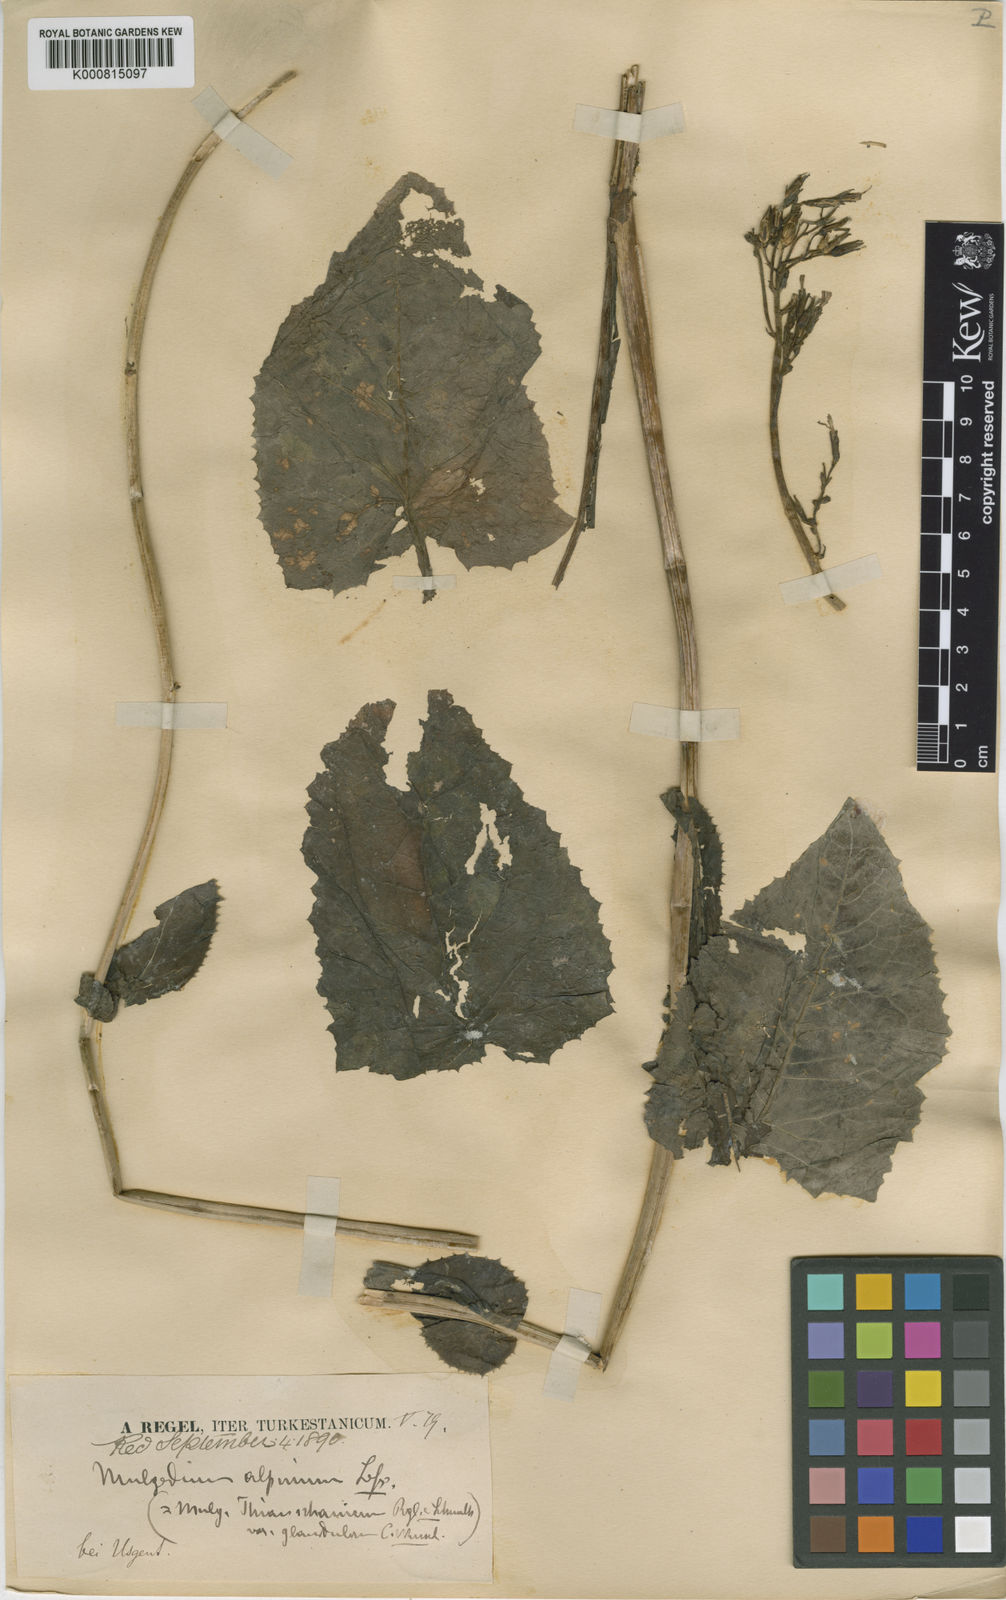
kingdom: Plantae
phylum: Tracheophyta
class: Magnoliopsida
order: Asterales
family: Asteraceae
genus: Cicerbita
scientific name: Cicerbita thianschanica
